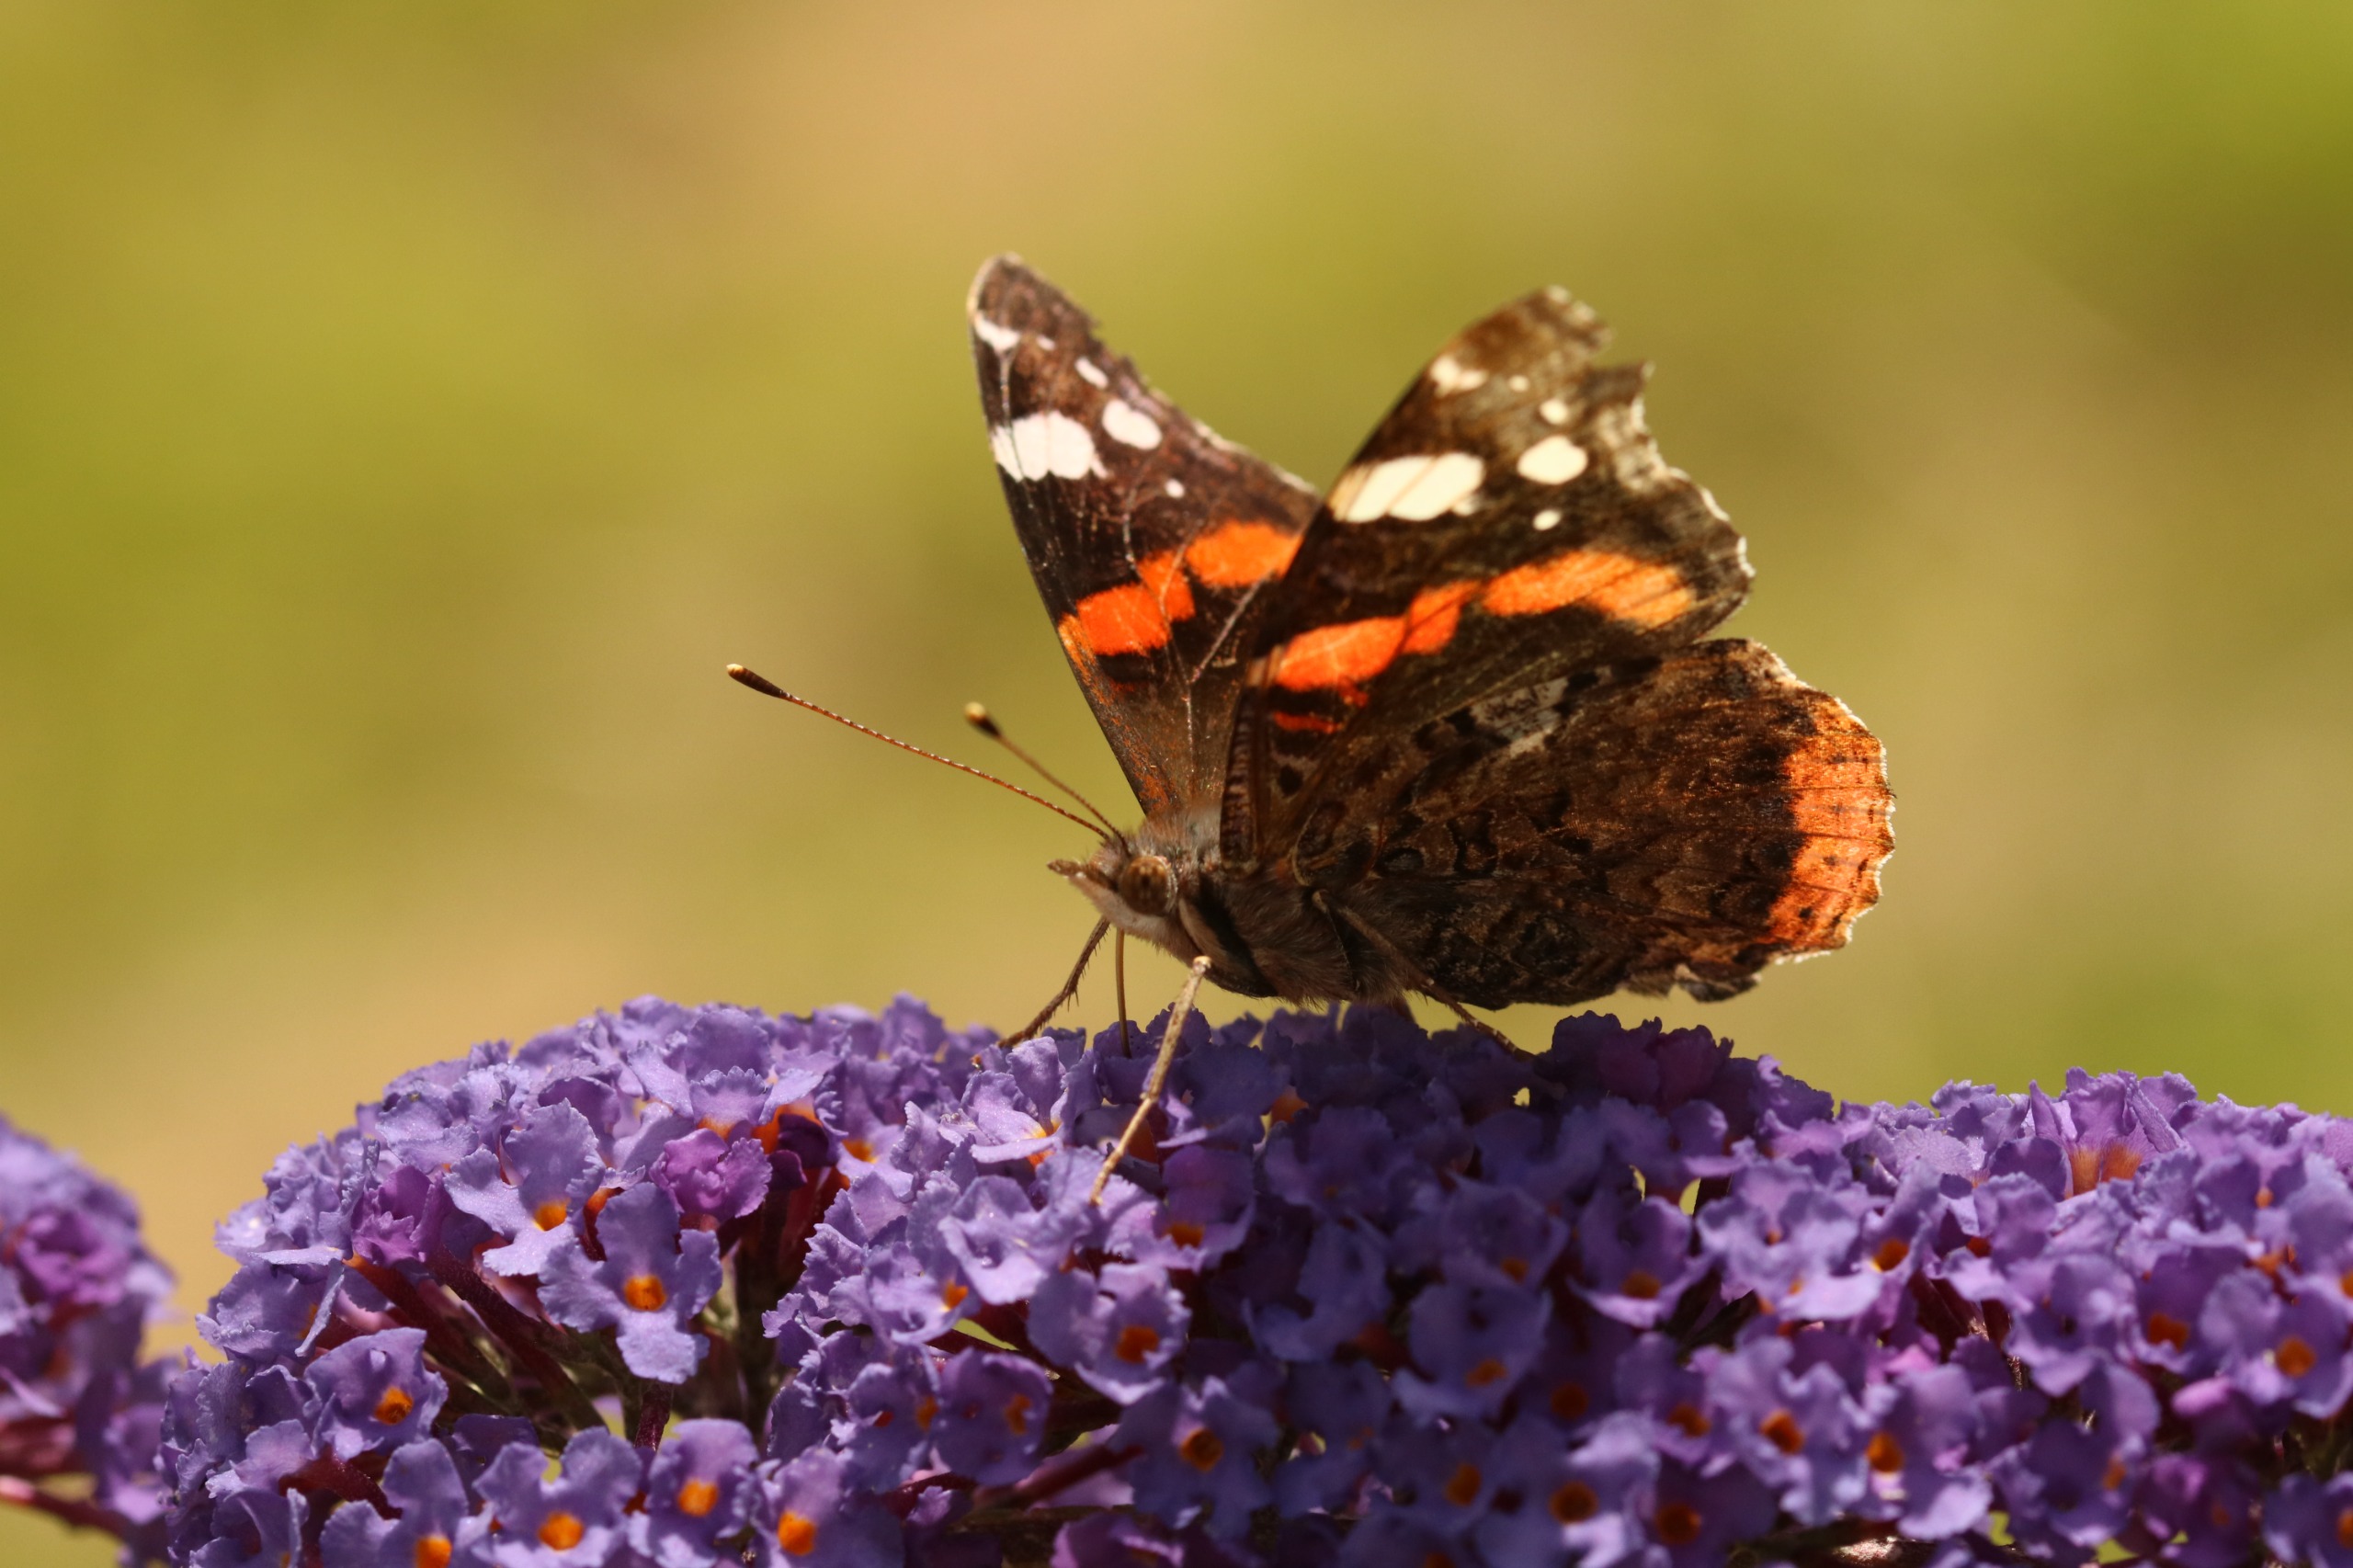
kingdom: Animalia
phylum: Arthropoda
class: Insecta
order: Lepidoptera
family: Nymphalidae
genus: Vanessa
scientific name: Vanessa atalanta
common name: Admiral
